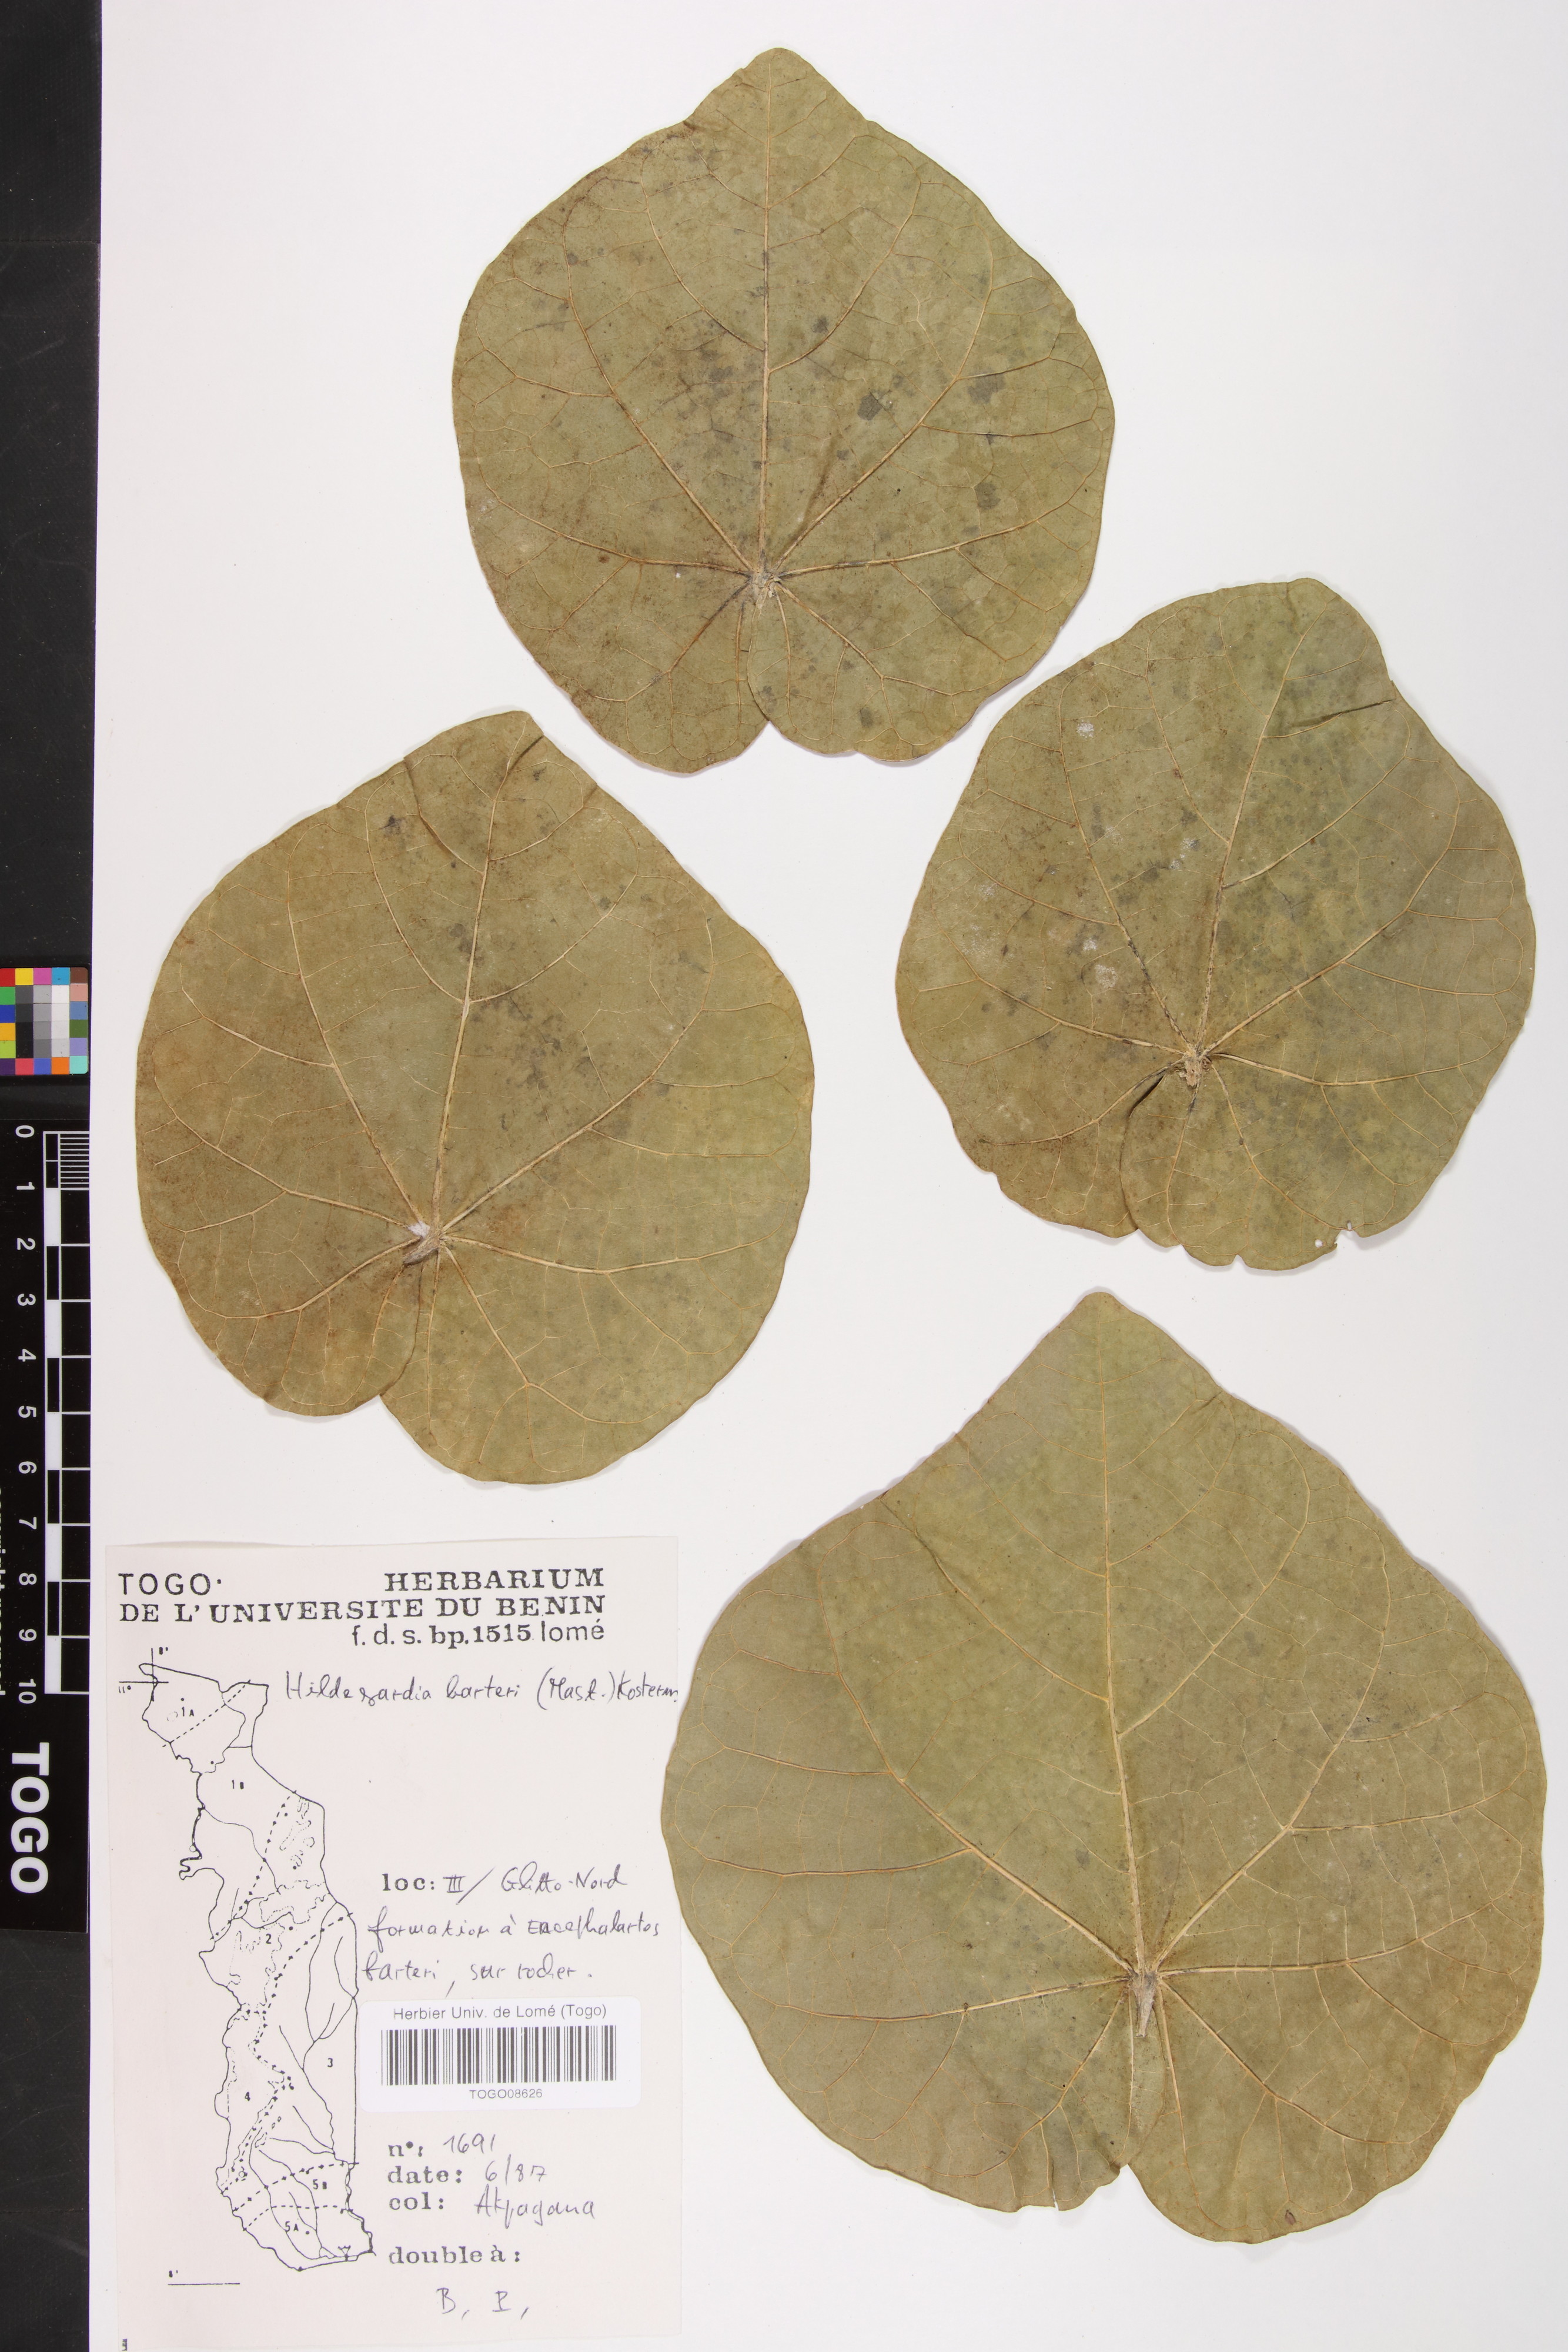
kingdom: Plantae
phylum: Tracheophyta
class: Magnoliopsida
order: Malvales
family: Malvaceae
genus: Hildegardia
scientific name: Hildegardia barteri
